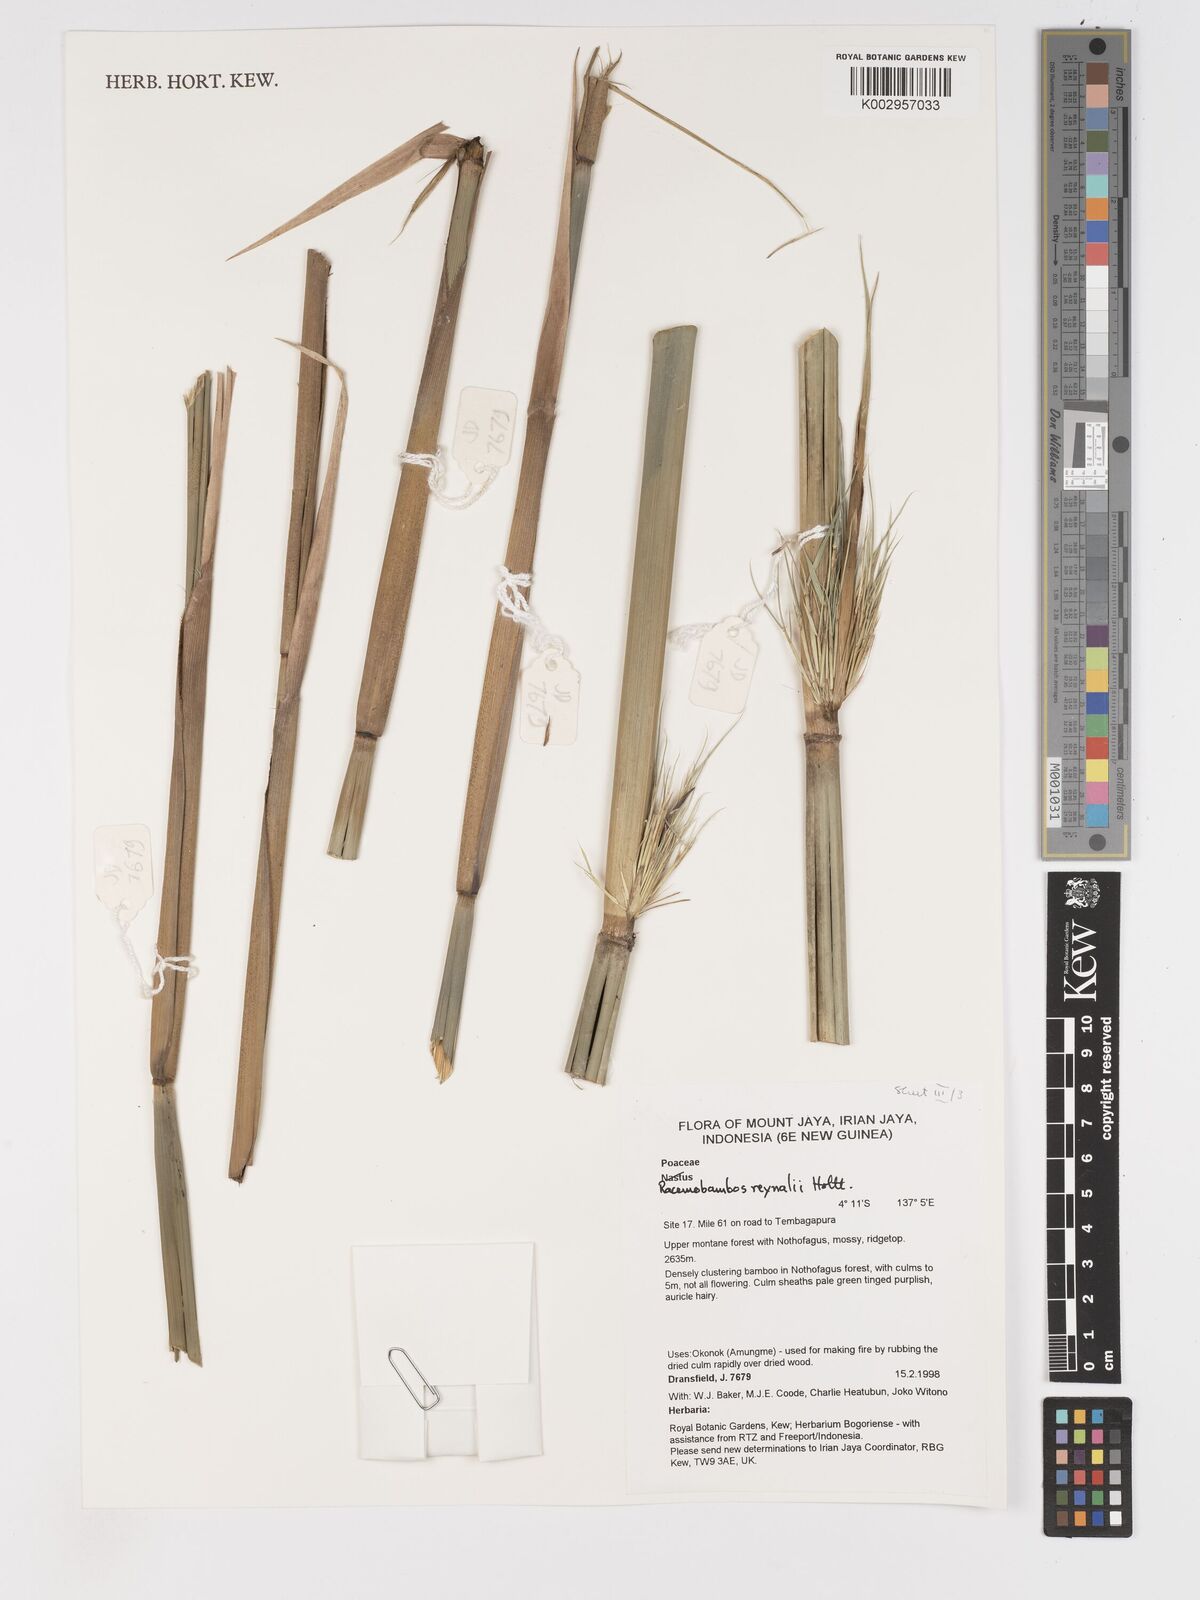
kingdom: Plantae
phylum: Tracheophyta
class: Liliopsida
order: Poales
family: Poaceae
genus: Racemobambos
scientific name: Racemobambos raynalii
